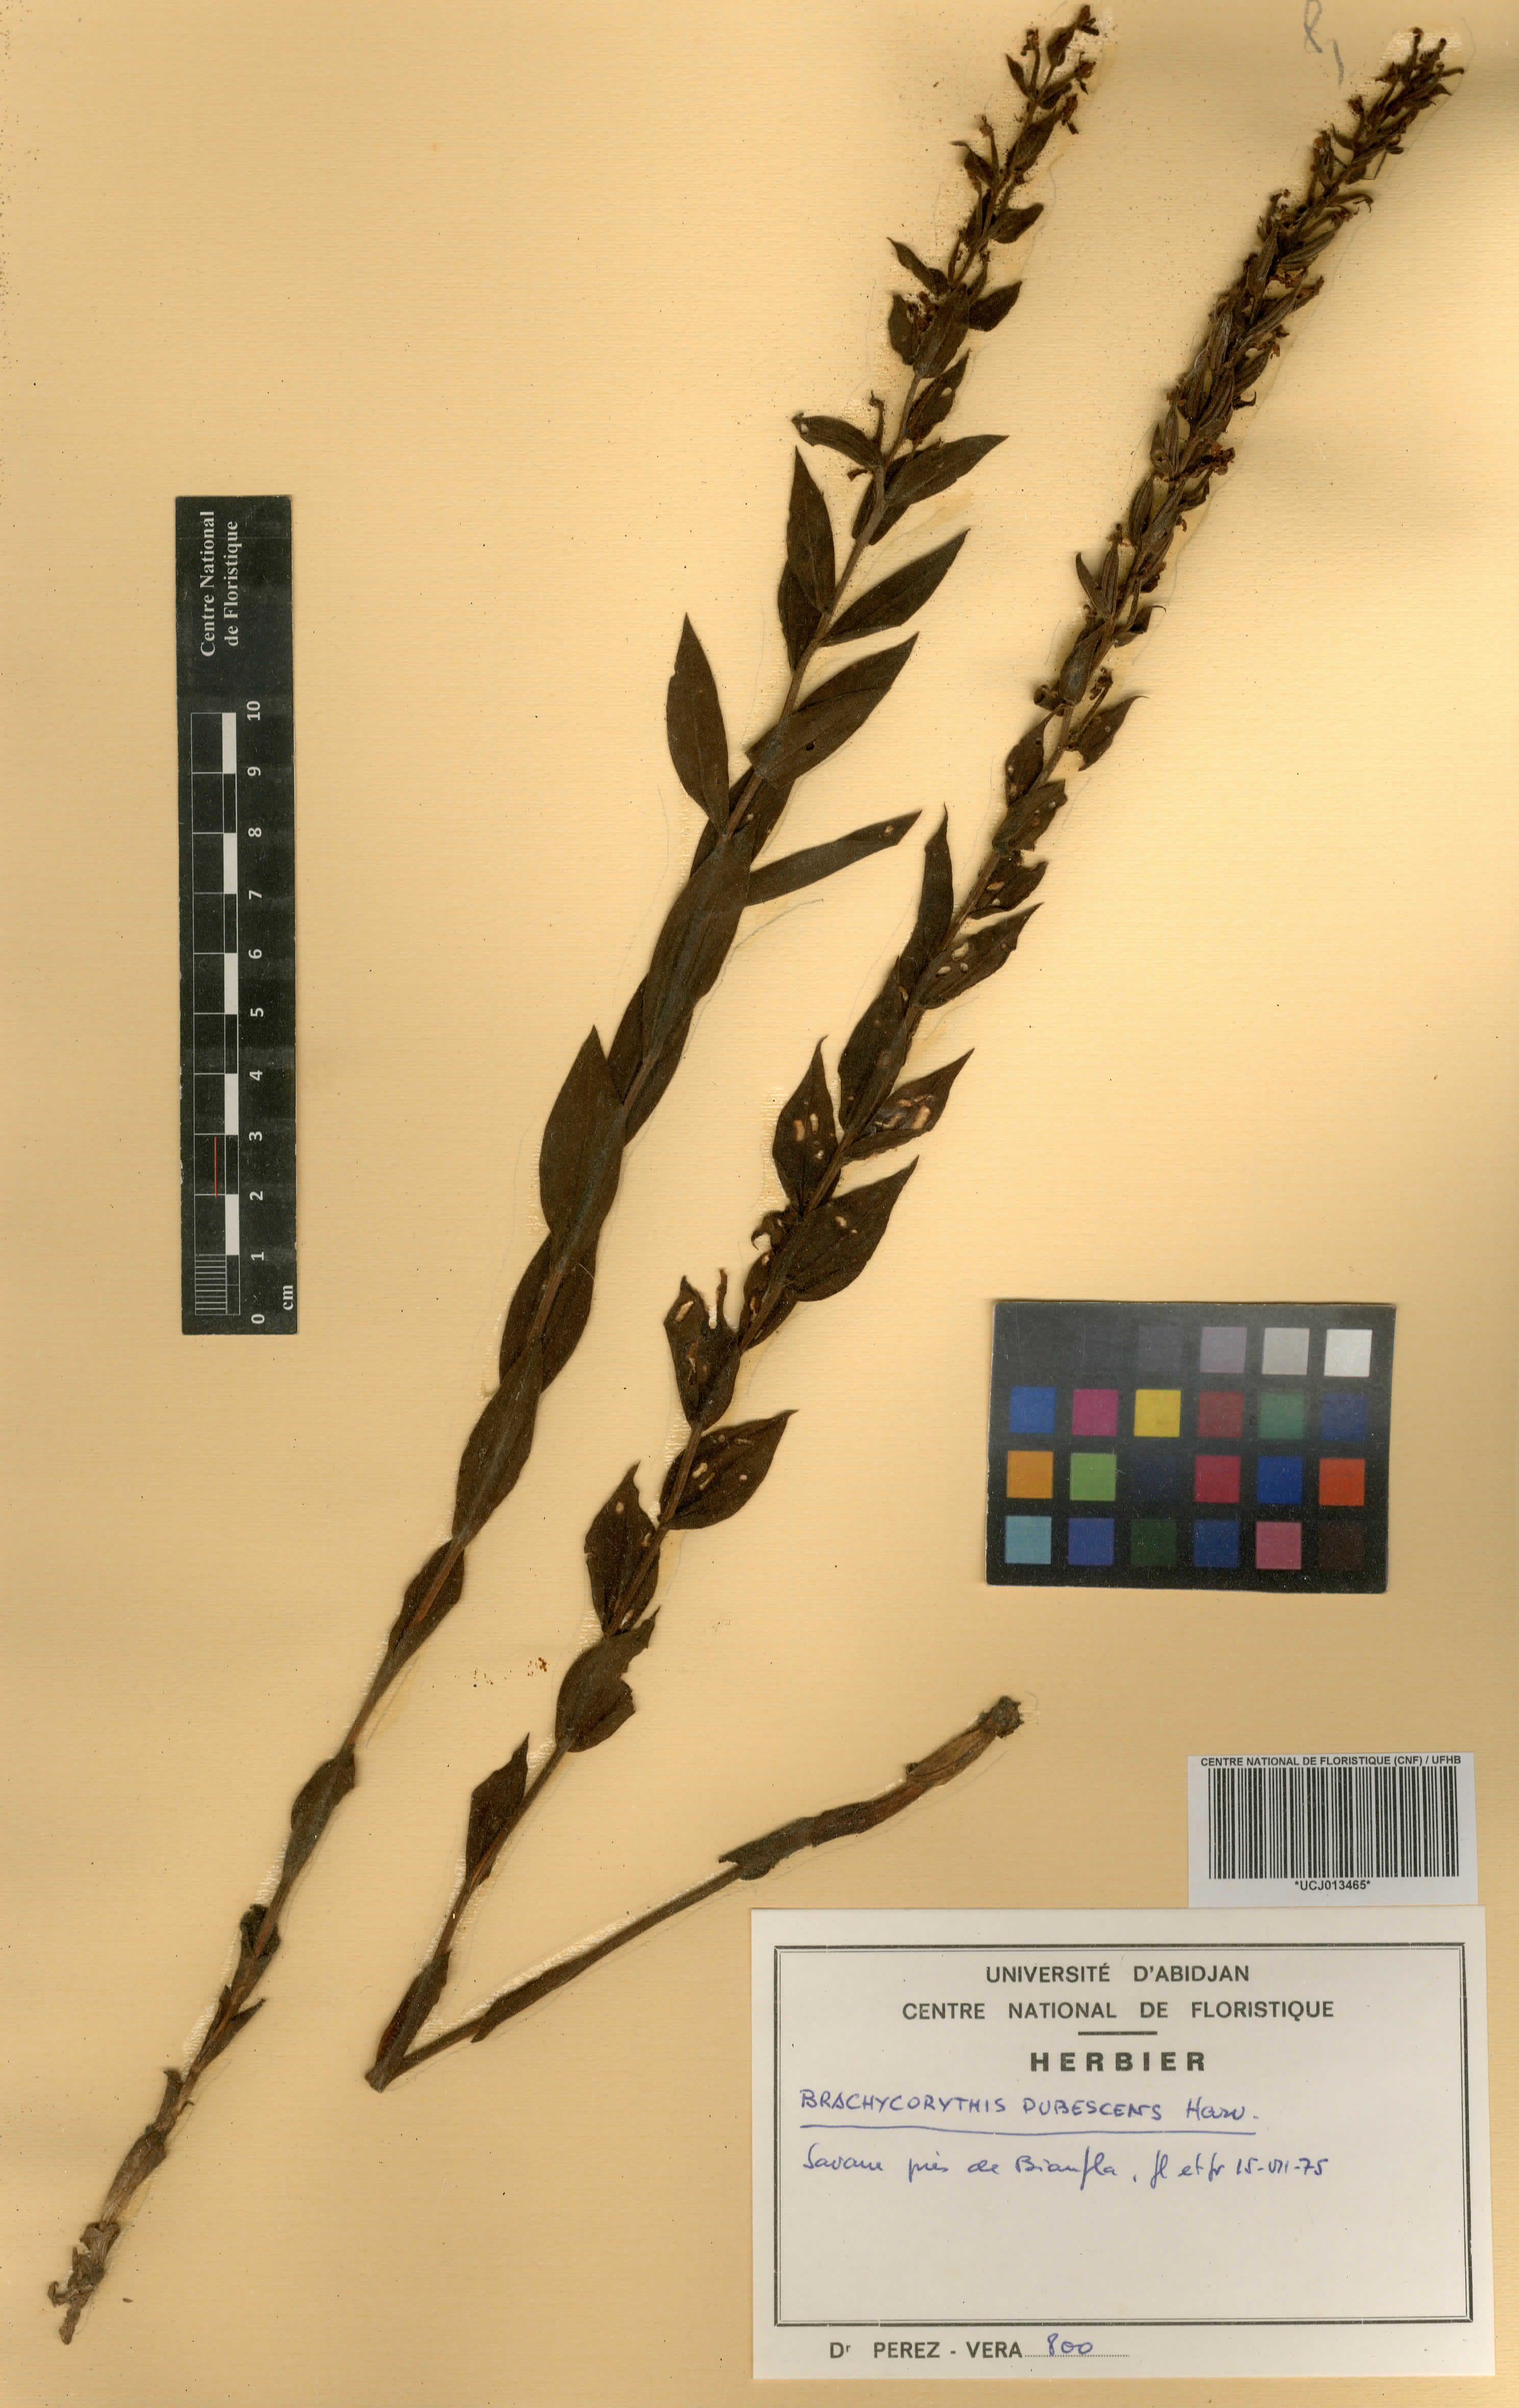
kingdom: Plantae
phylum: Tracheophyta
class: Liliopsida
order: Asparagales
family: Orchidaceae
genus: Brachycorythis
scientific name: Brachycorythis pubescens
